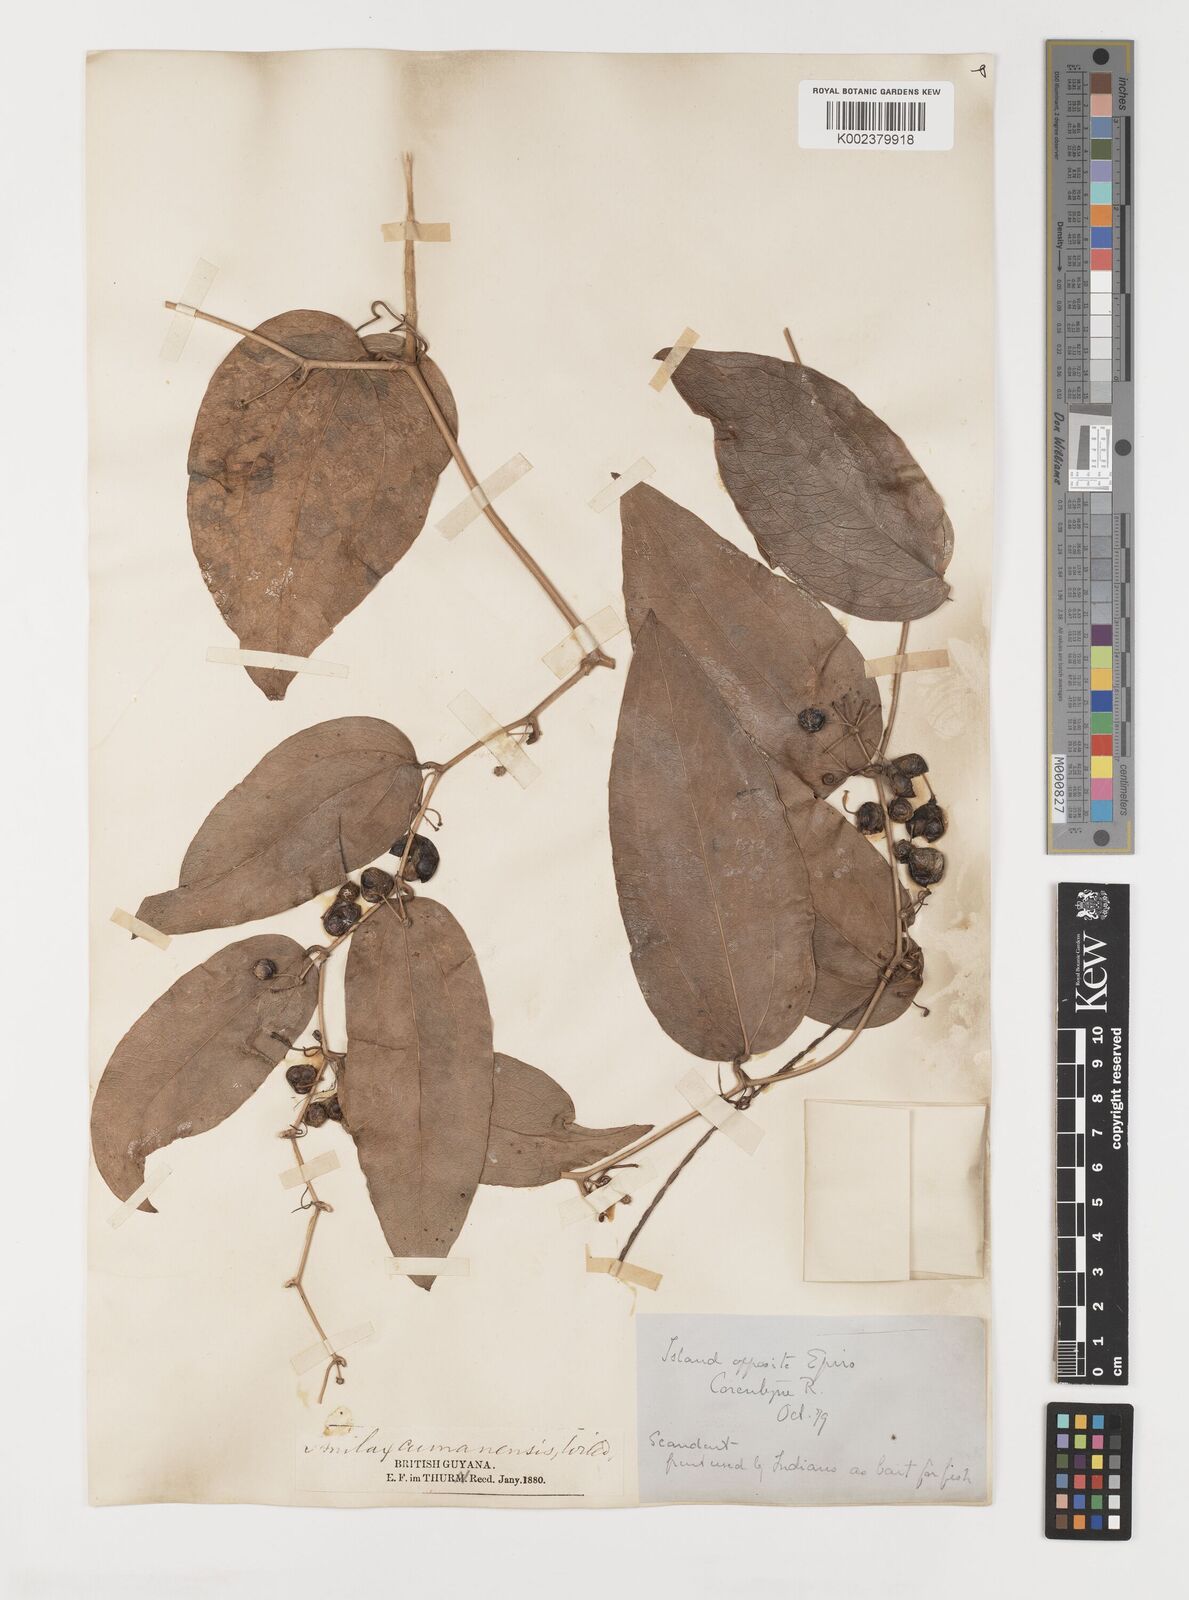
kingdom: Plantae
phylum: Tracheophyta
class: Liliopsida
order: Liliales
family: Smilacaceae
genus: Smilax
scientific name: Smilax oblongata
